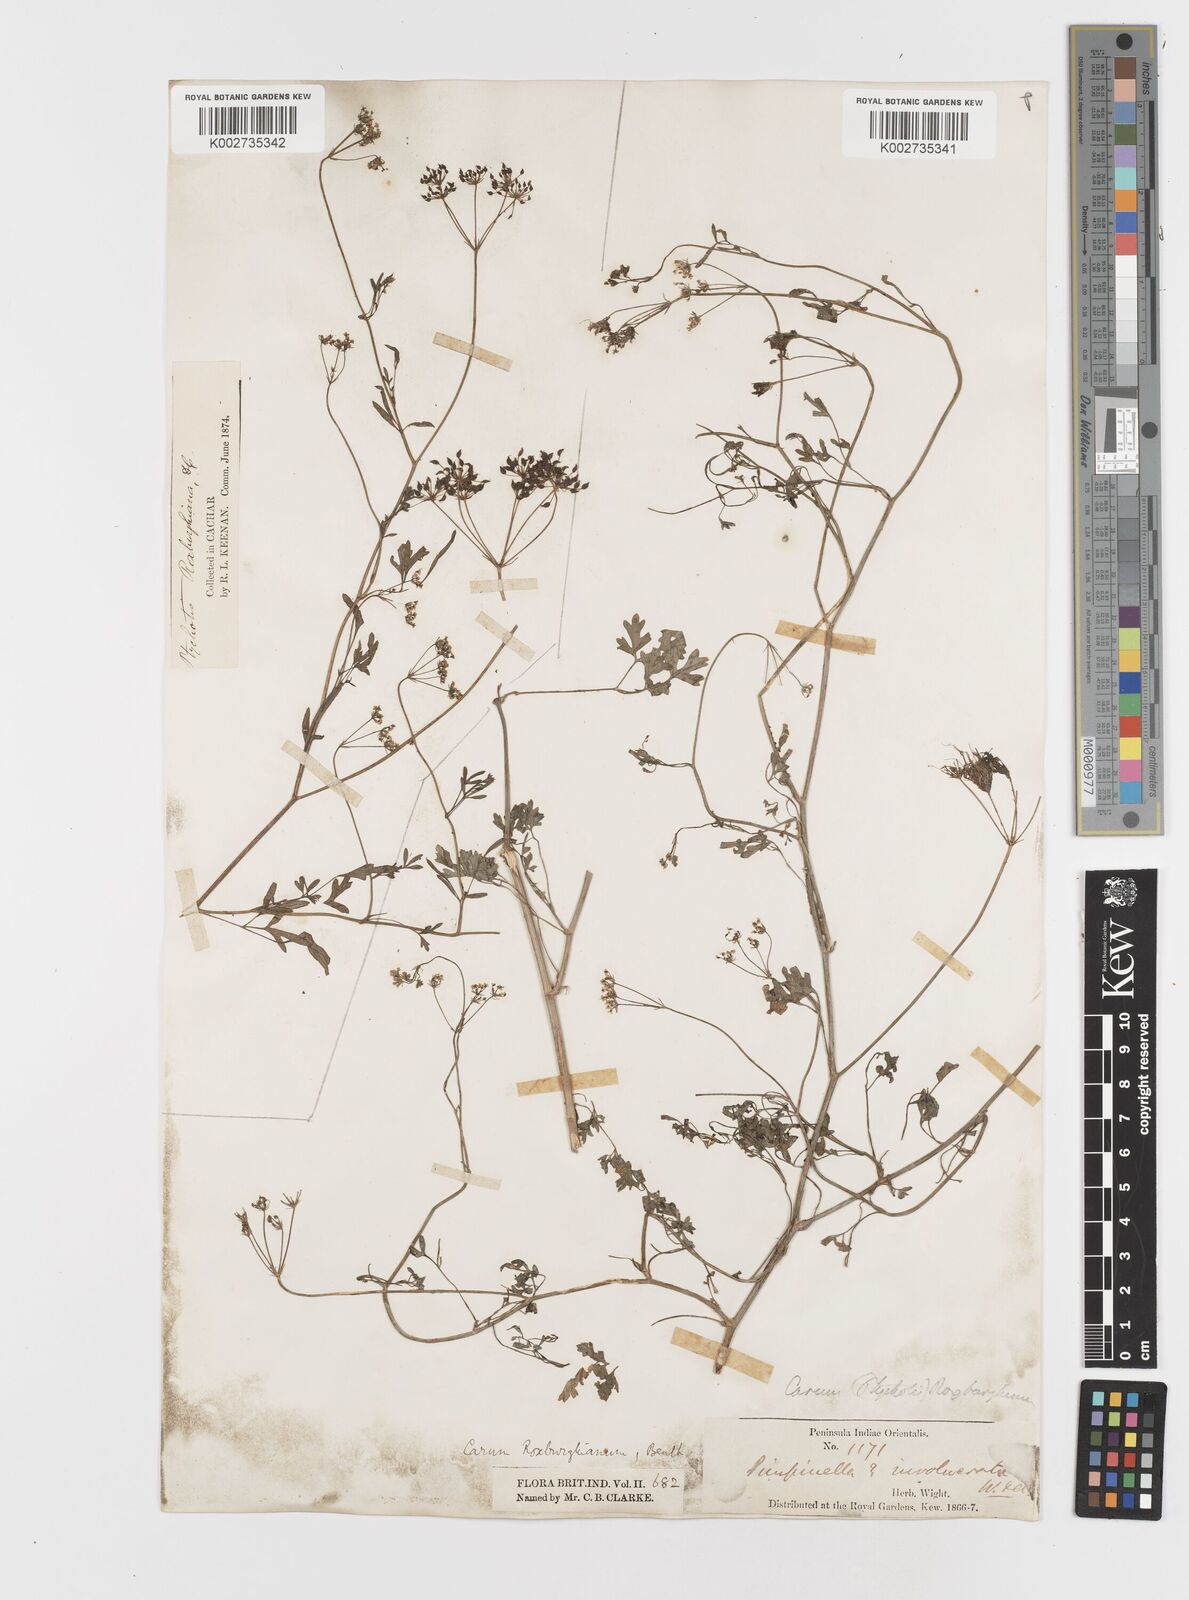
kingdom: Plantae
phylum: Tracheophyta
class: Magnoliopsida
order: Apiales
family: Apiaceae
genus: Psammogeton
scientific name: Psammogeton involucratum
